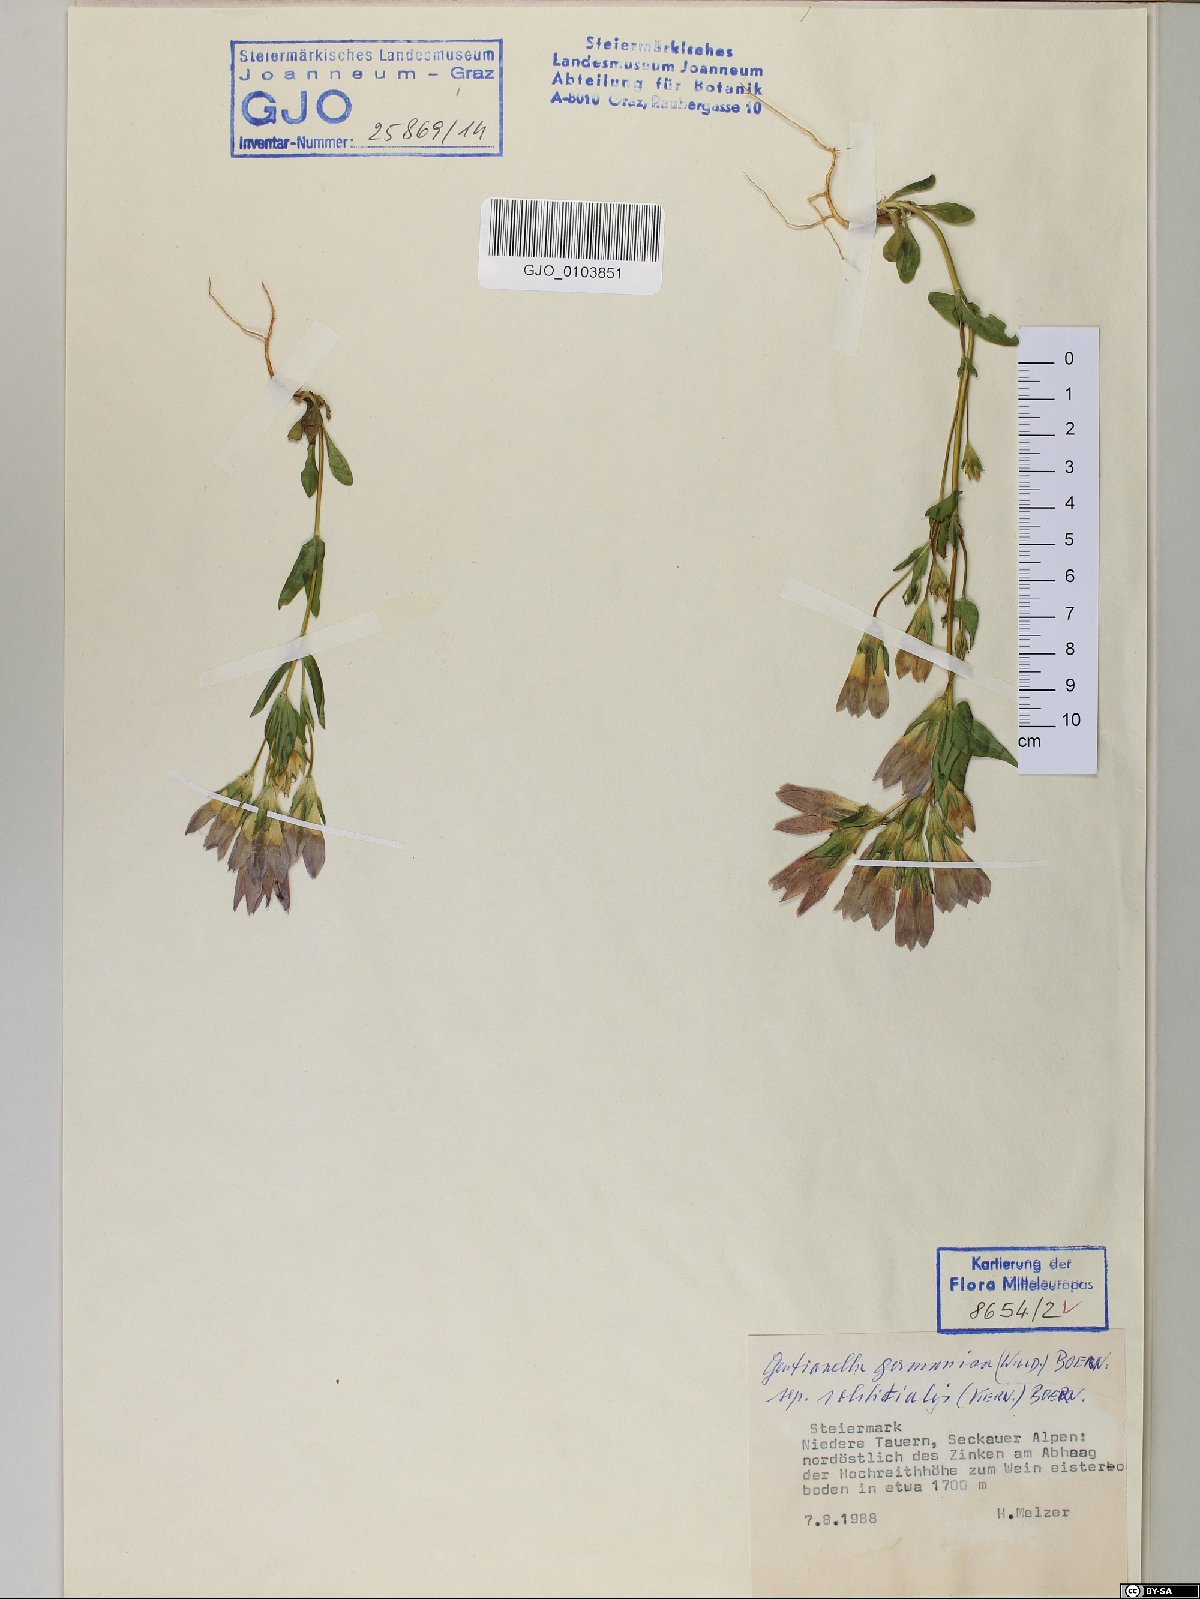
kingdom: Plantae
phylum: Tracheophyta
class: Magnoliopsida
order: Gentianales
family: Gentianaceae
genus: Gentianella
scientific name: Gentianella germanica
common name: Chiltern-gentian
